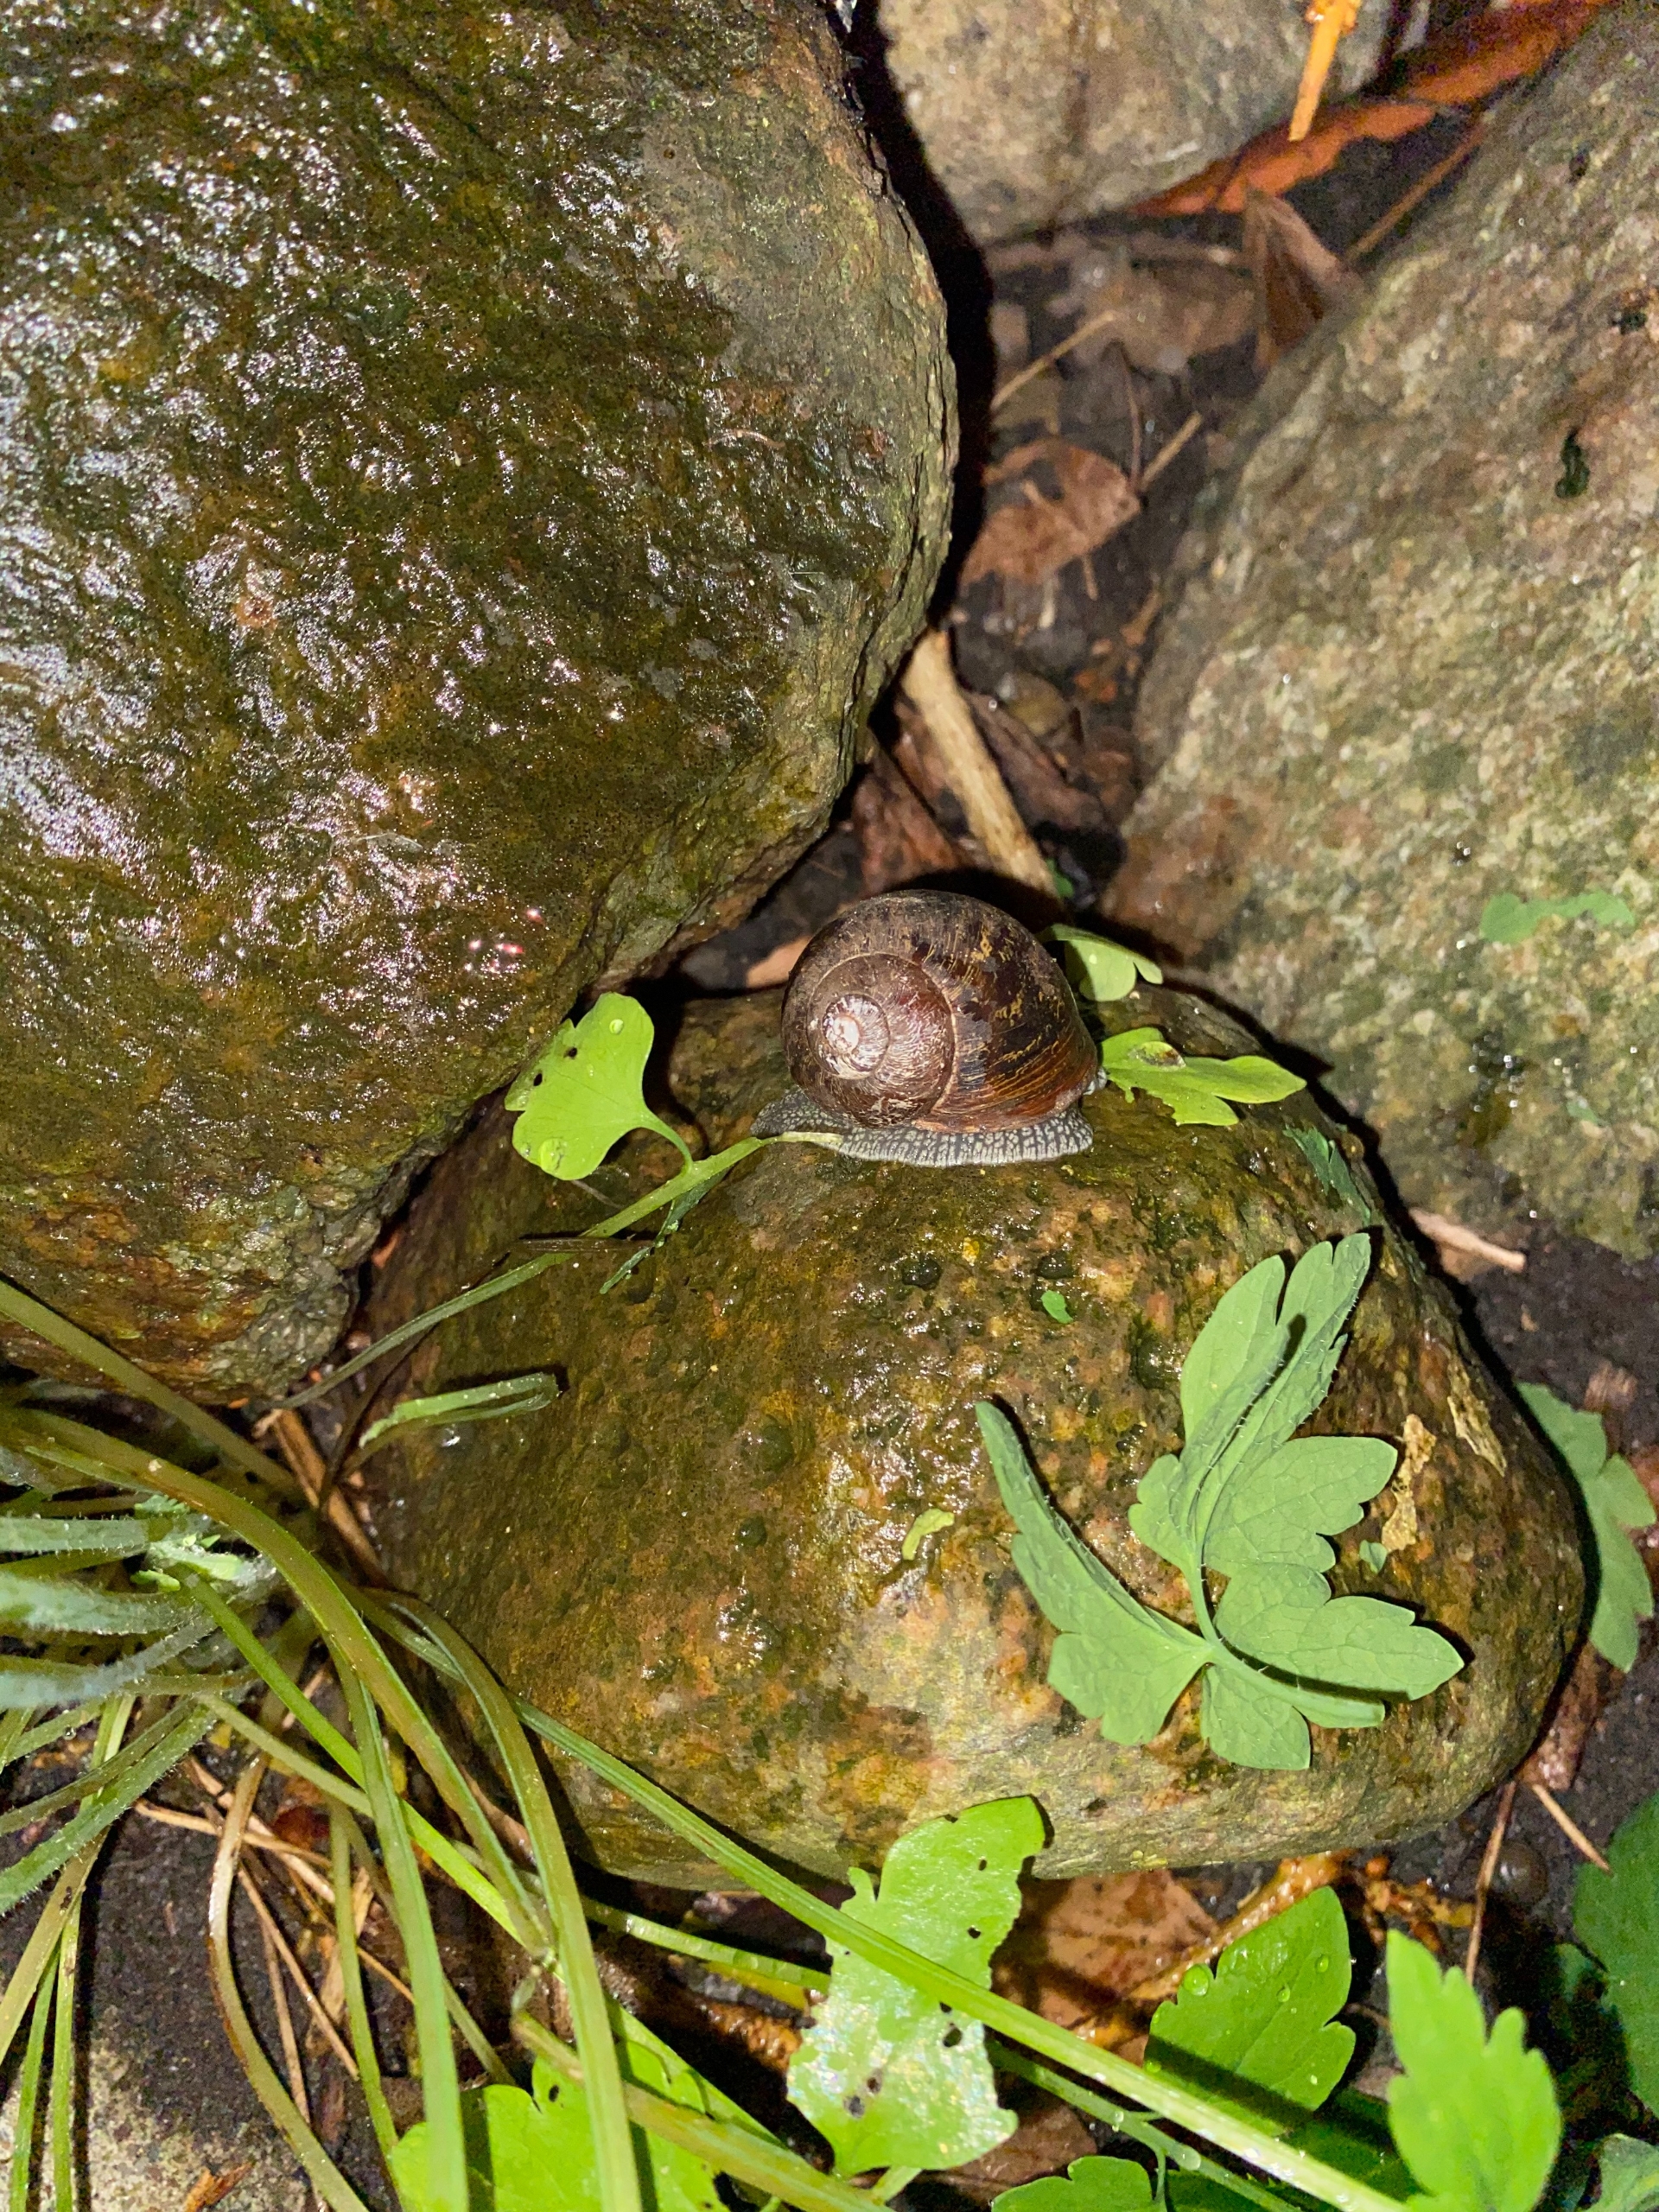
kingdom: Animalia
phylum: Mollusca
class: Gastropoda
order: Stylommatophora
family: Helicidae
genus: Cornu
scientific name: Cornu aspersum
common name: Plettet voldsnegl
